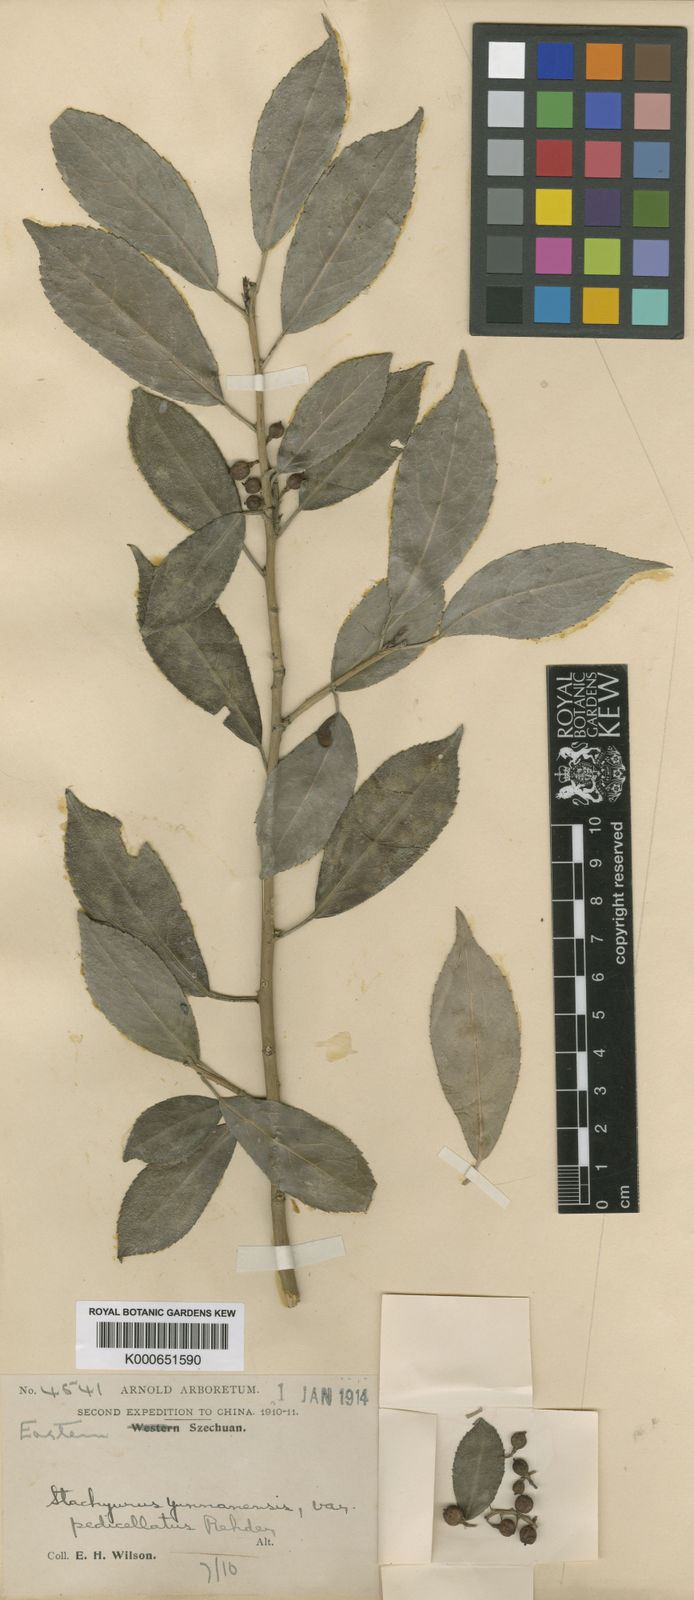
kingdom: Plantae
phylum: Tracheophyta
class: Magnoliopsida
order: Crossosomatales
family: Stachyuraceae
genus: Stachyurus
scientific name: Stachyurus yunnanensis
